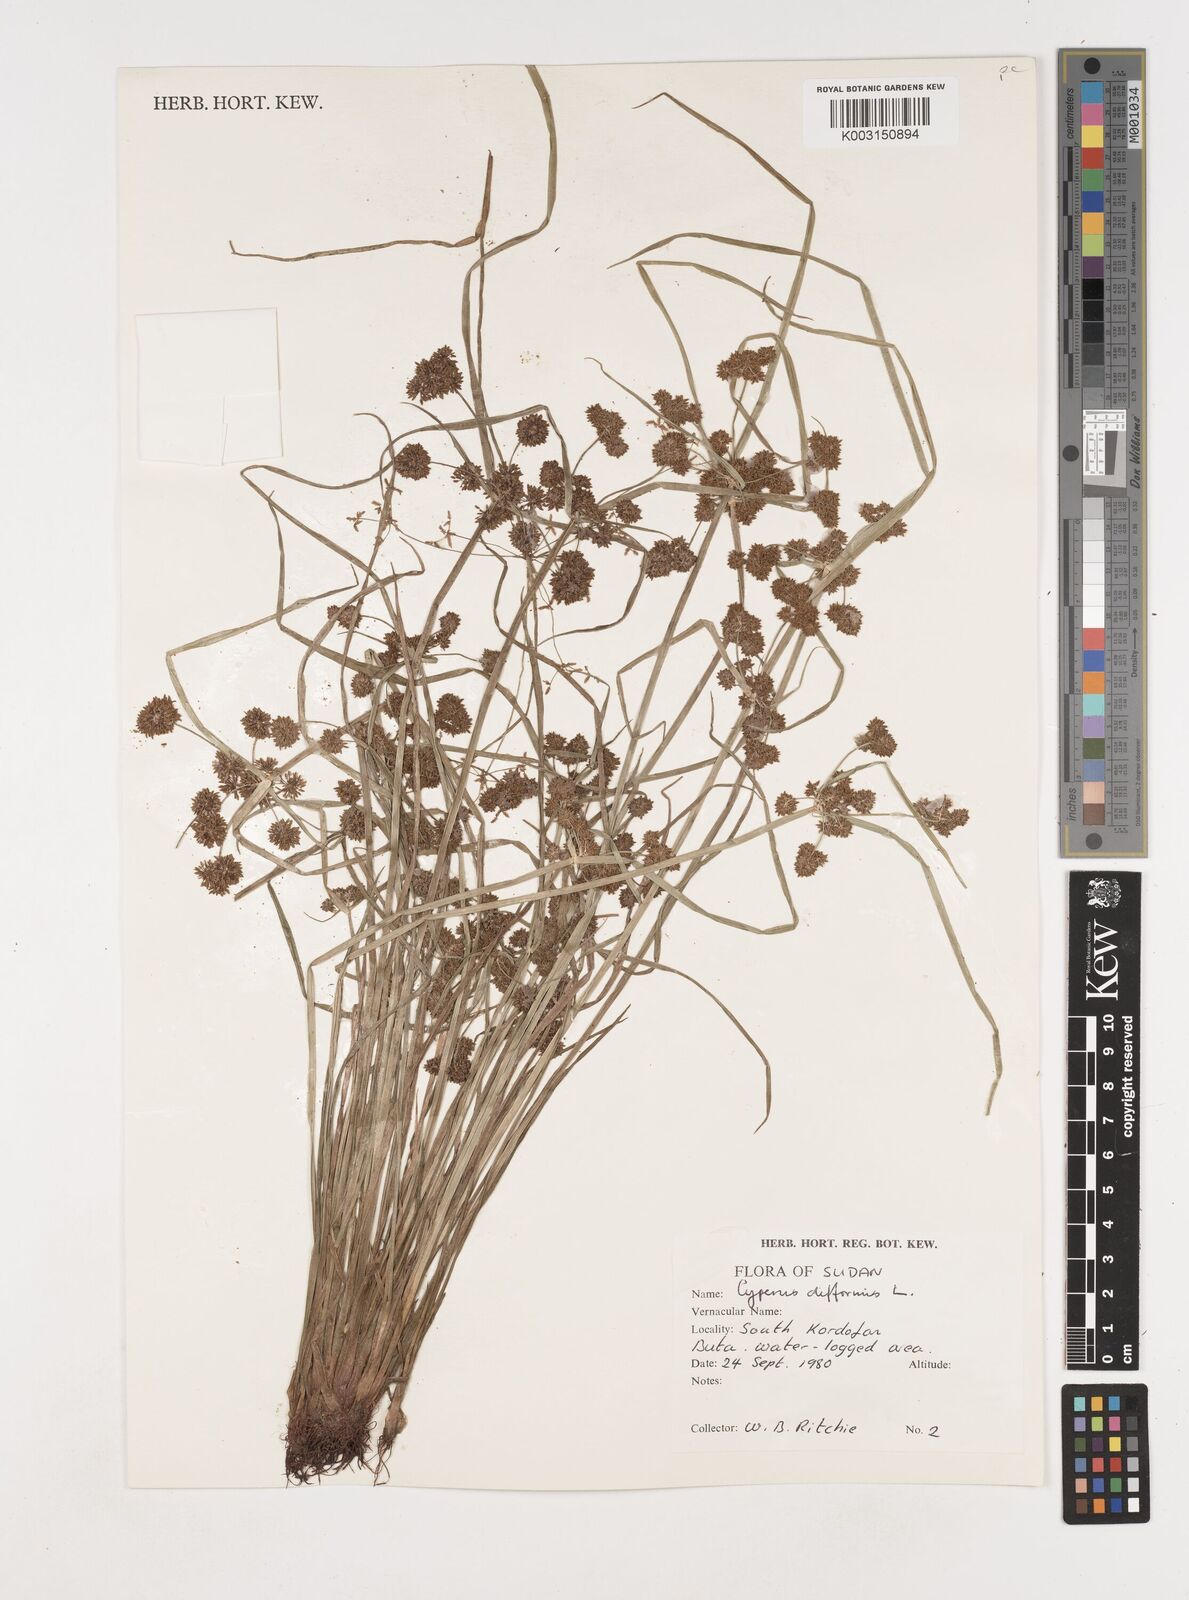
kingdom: Plantae
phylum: Tracheophyta
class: Liliopsida
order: Poales
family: Cyperaceae
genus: Cyperus
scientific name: Cyperus difformis
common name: Variable flatsedge
